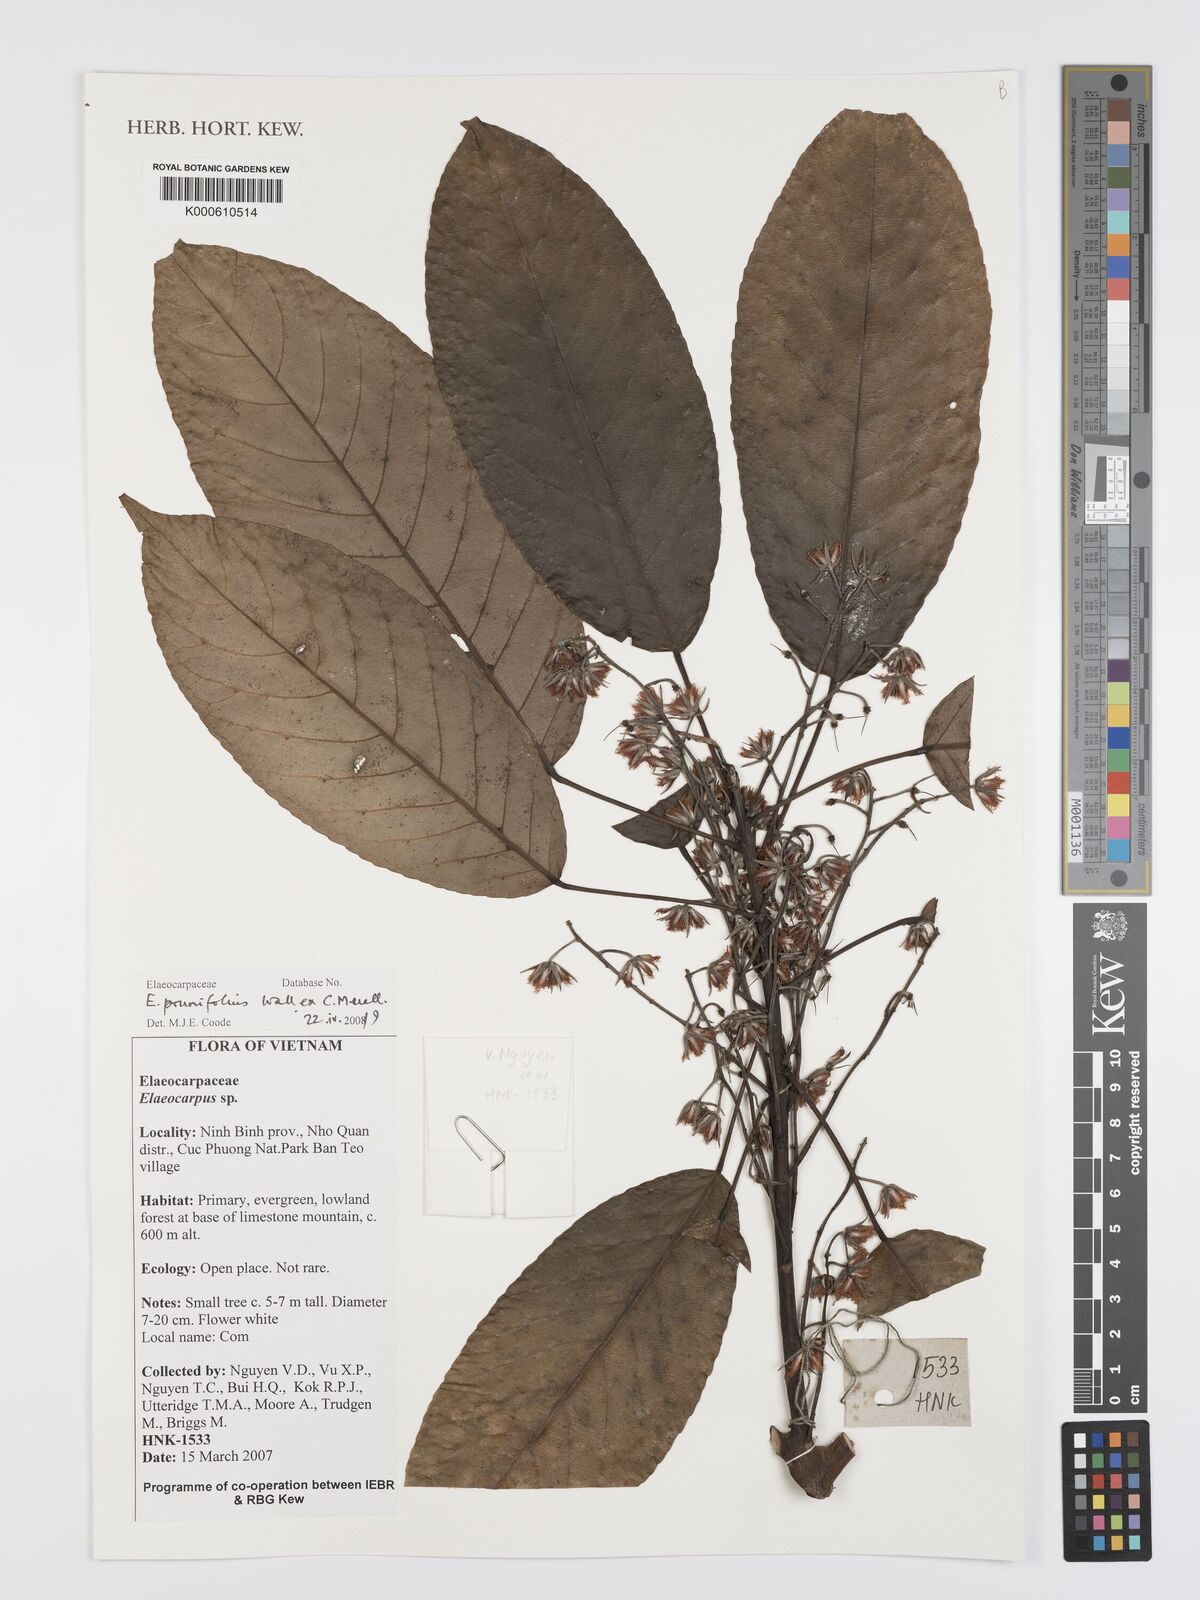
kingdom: Plantae
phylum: Tracheophyta
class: Magnoliopsida
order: Oxalidales
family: Elaeocarpaceae
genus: Elaeocarpus
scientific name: Elaeocarpus
